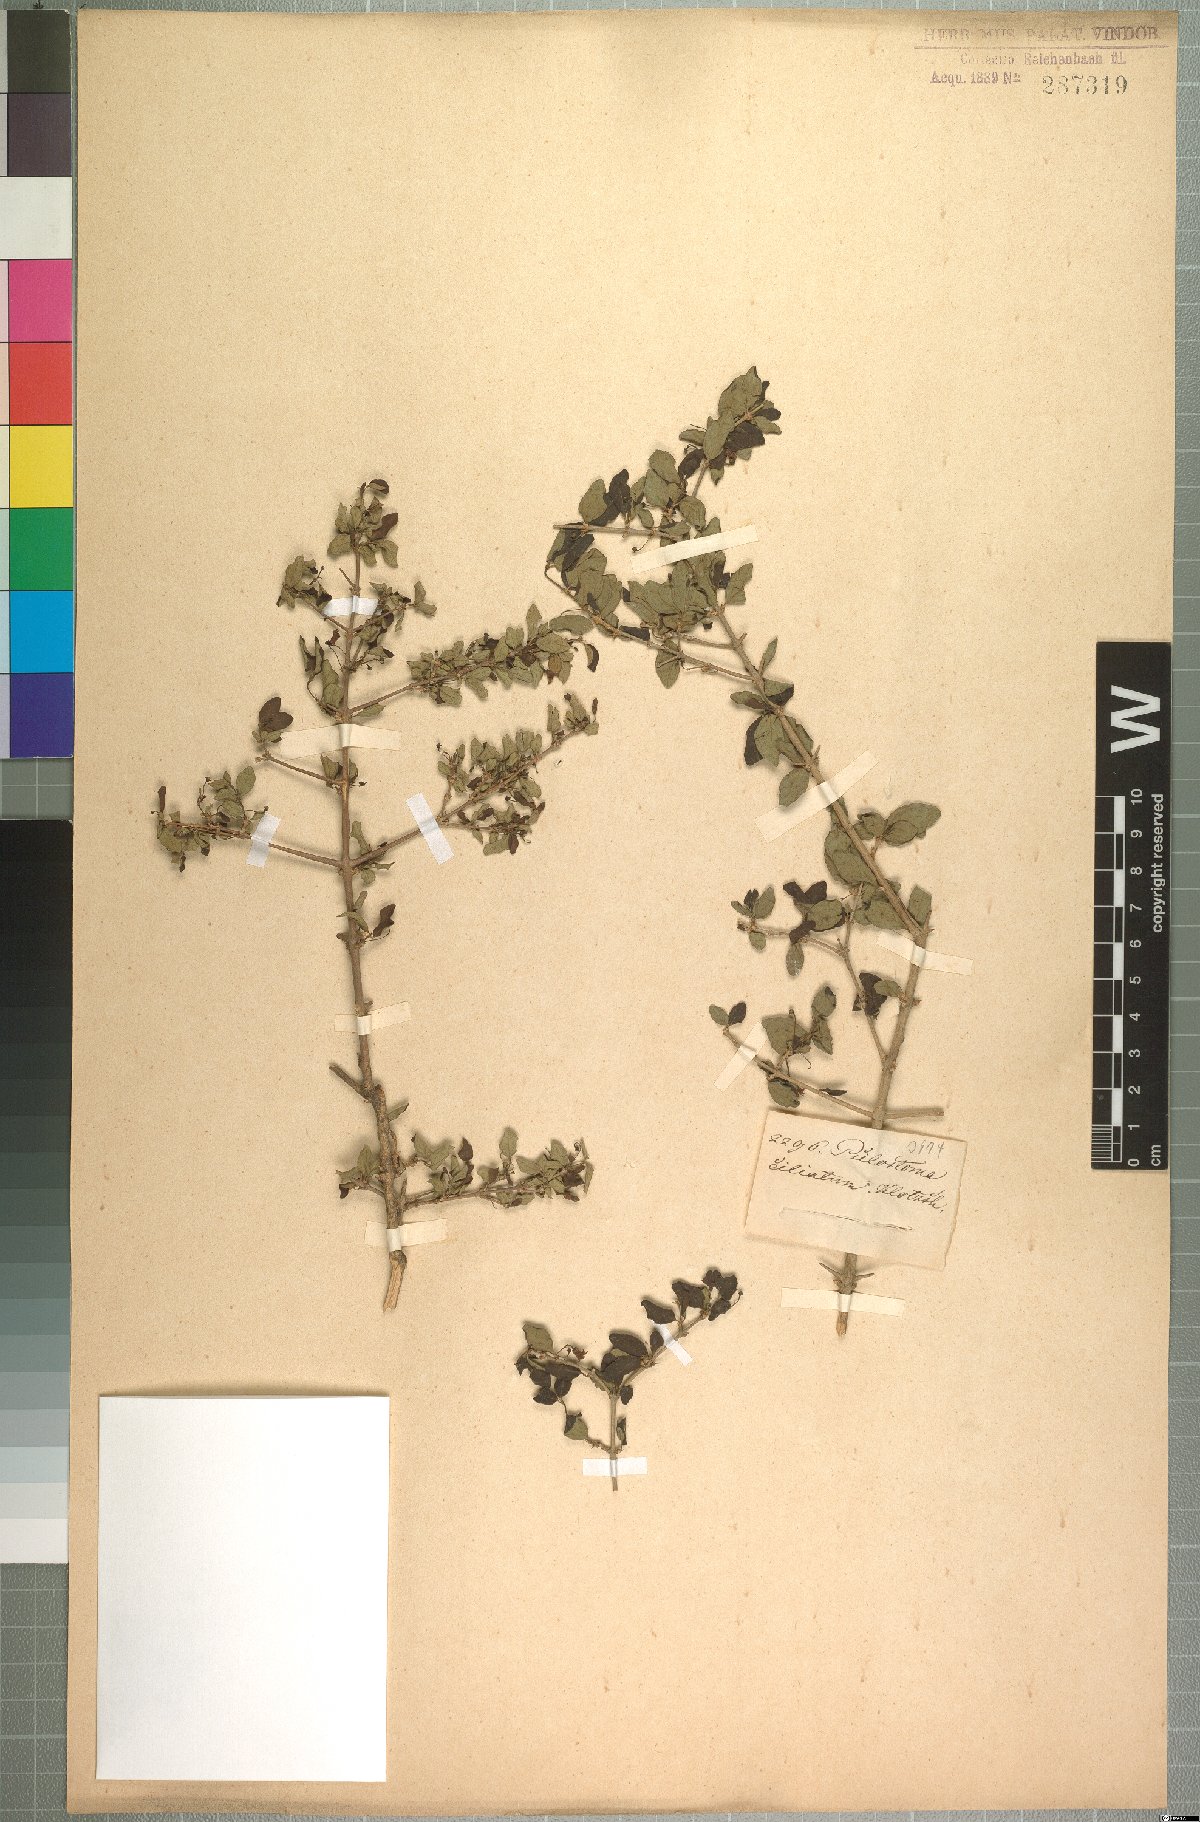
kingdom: Plantae
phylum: Tracheophyta
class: Magnoliopsida
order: Gentianales
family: Rubiaceae
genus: Canthium
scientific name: Canthium ciliatum
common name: Hairy turkey-berry
